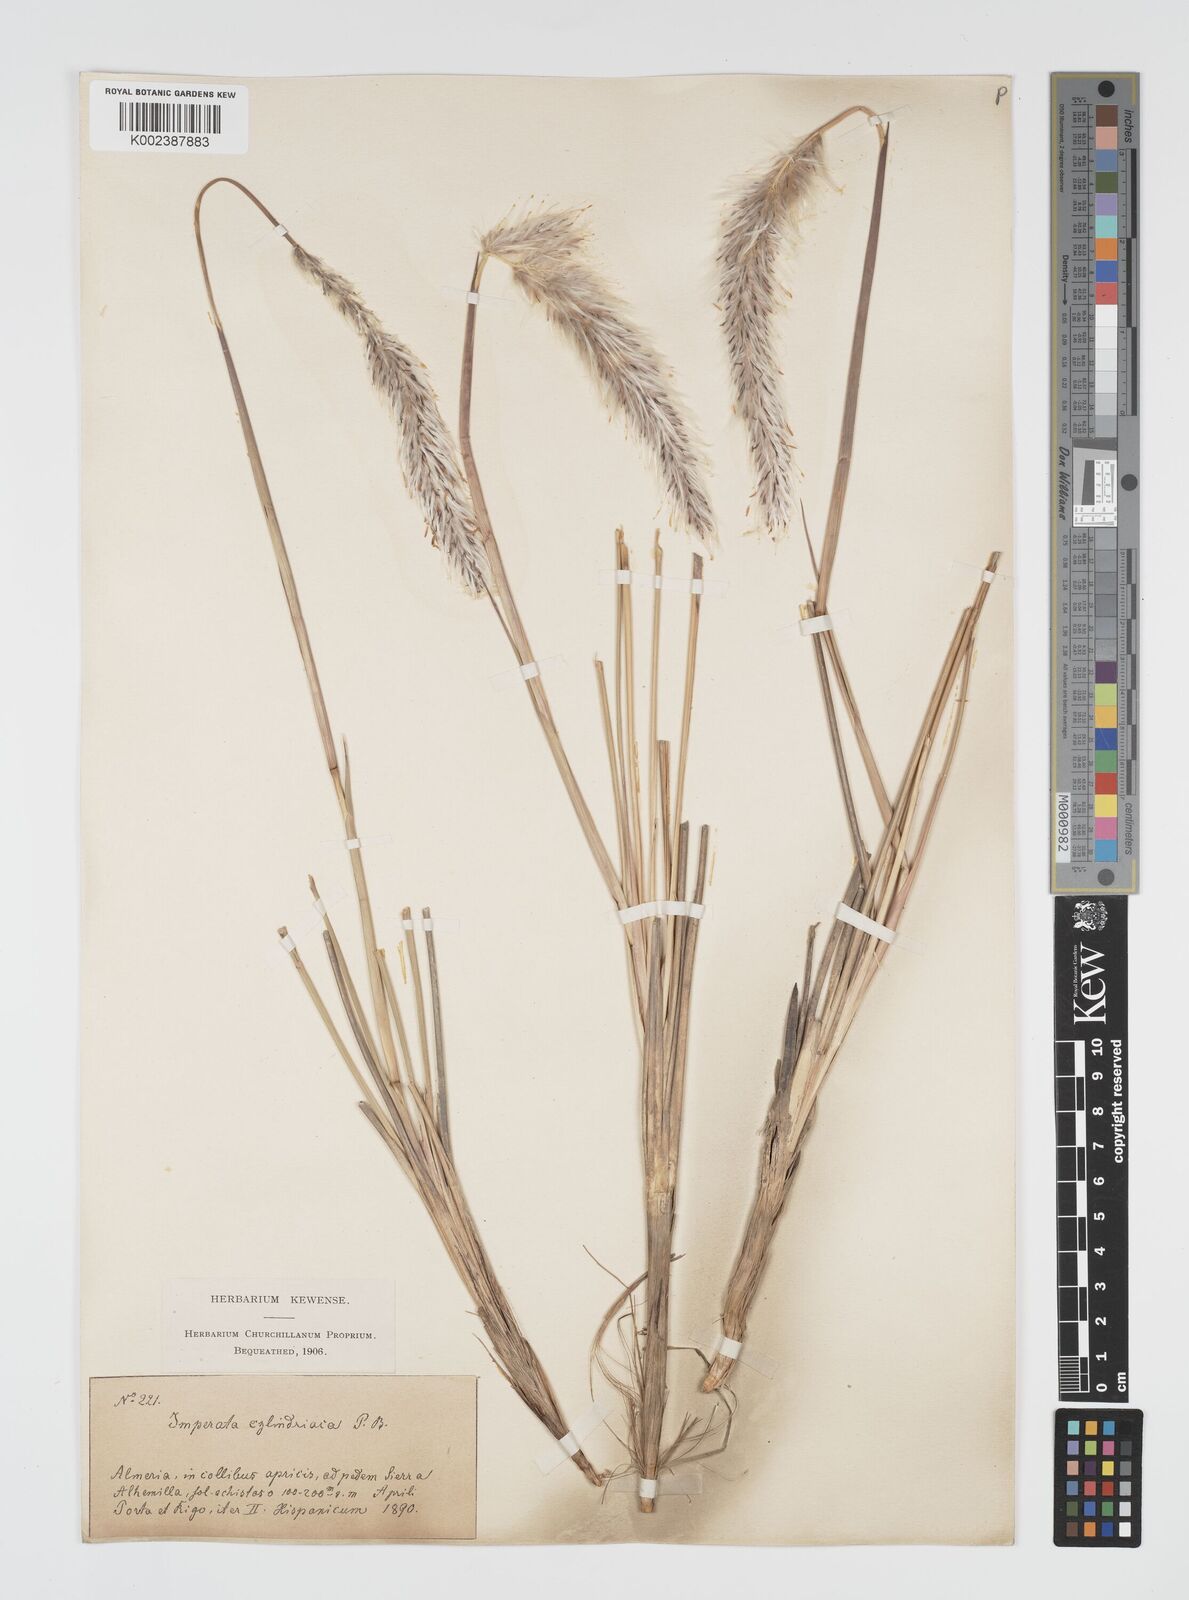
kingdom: Plantae
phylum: Tracheophyta
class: Liliopsida
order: Poales
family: Poaceae
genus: Imperata
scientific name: Imperata cylindrica
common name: Cogongrass
